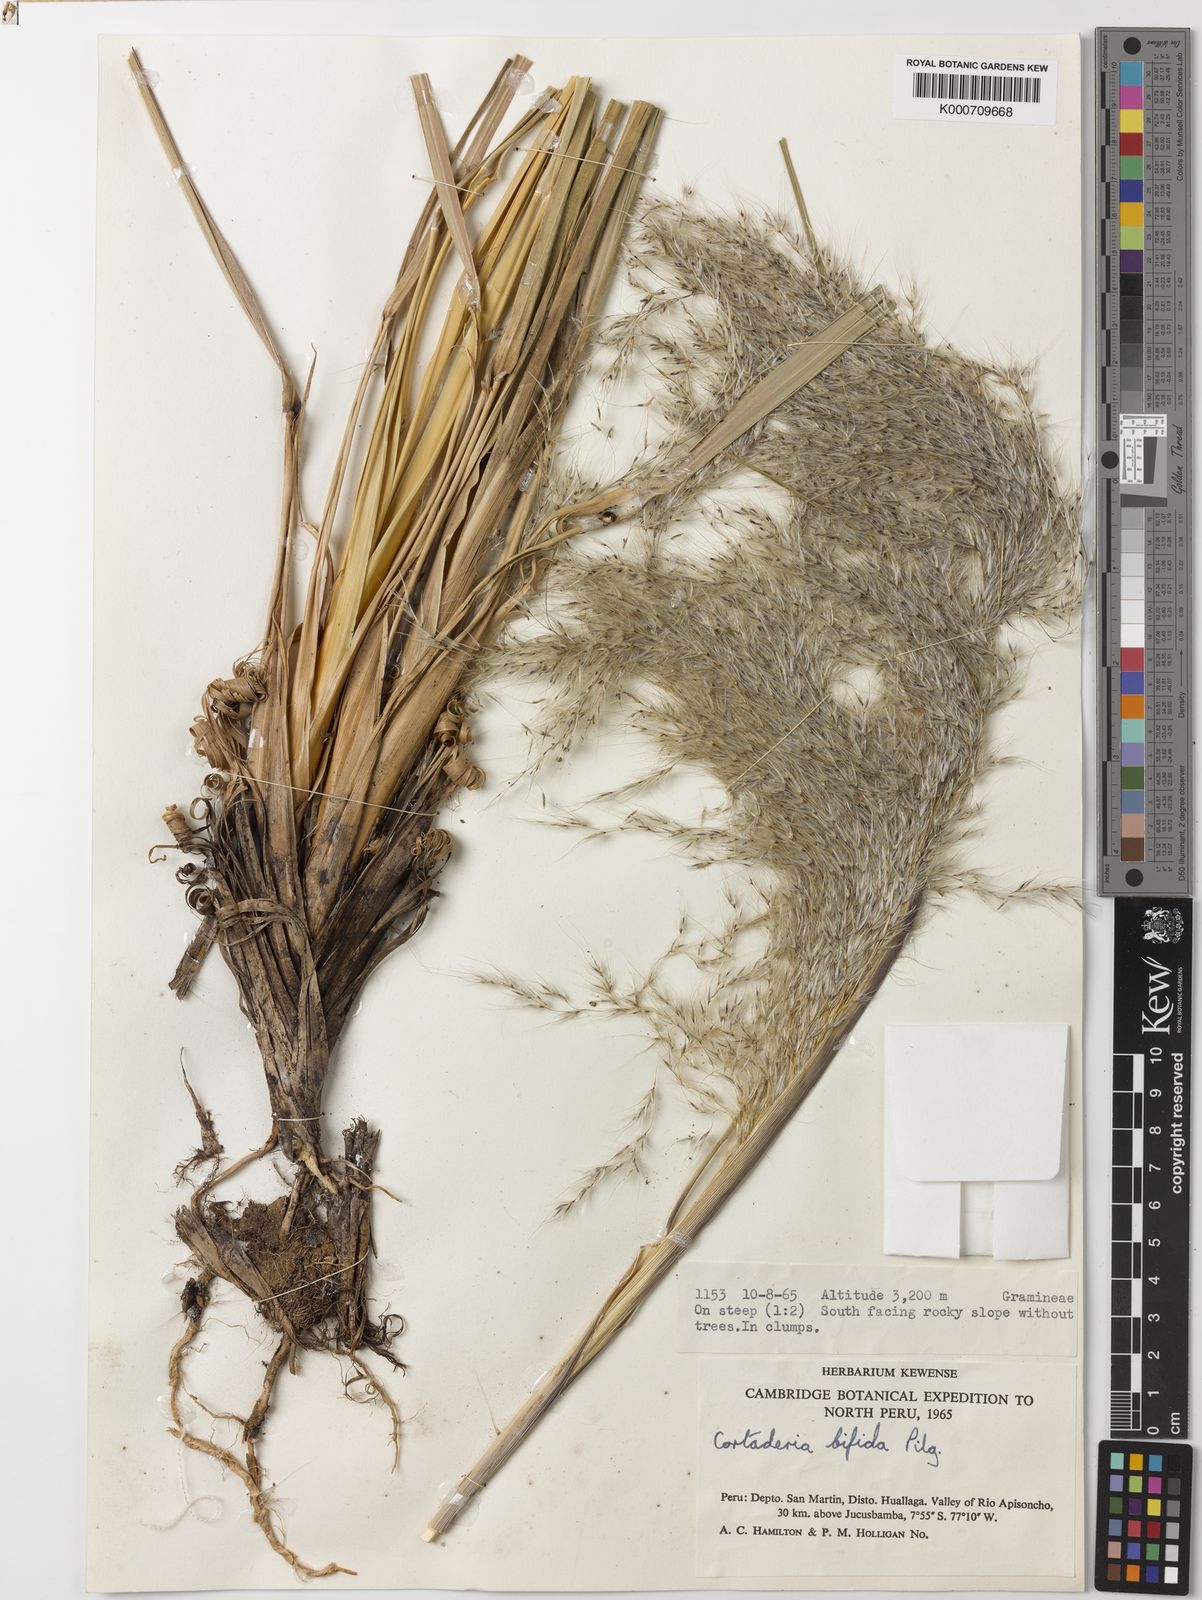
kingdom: Plantae
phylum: Tracheophyta
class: Liliopsida
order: Poales
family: Poaceae
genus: Cortaderia
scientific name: Cortaderia bifida
